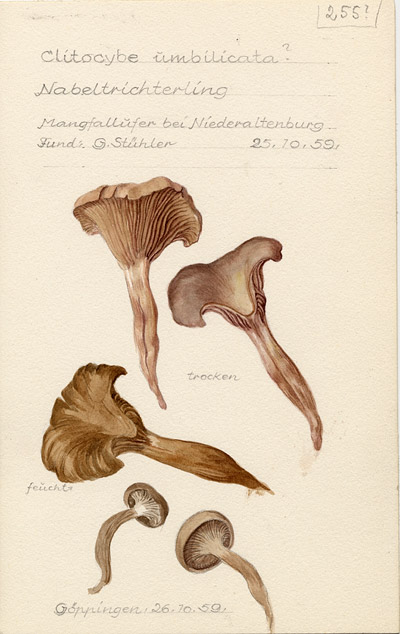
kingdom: Fungi
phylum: Basidiomycota
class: Agaricomycetes
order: Agaricales
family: Tricholomataceae
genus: Clitocybe
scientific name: Clitocybe umbilicata
